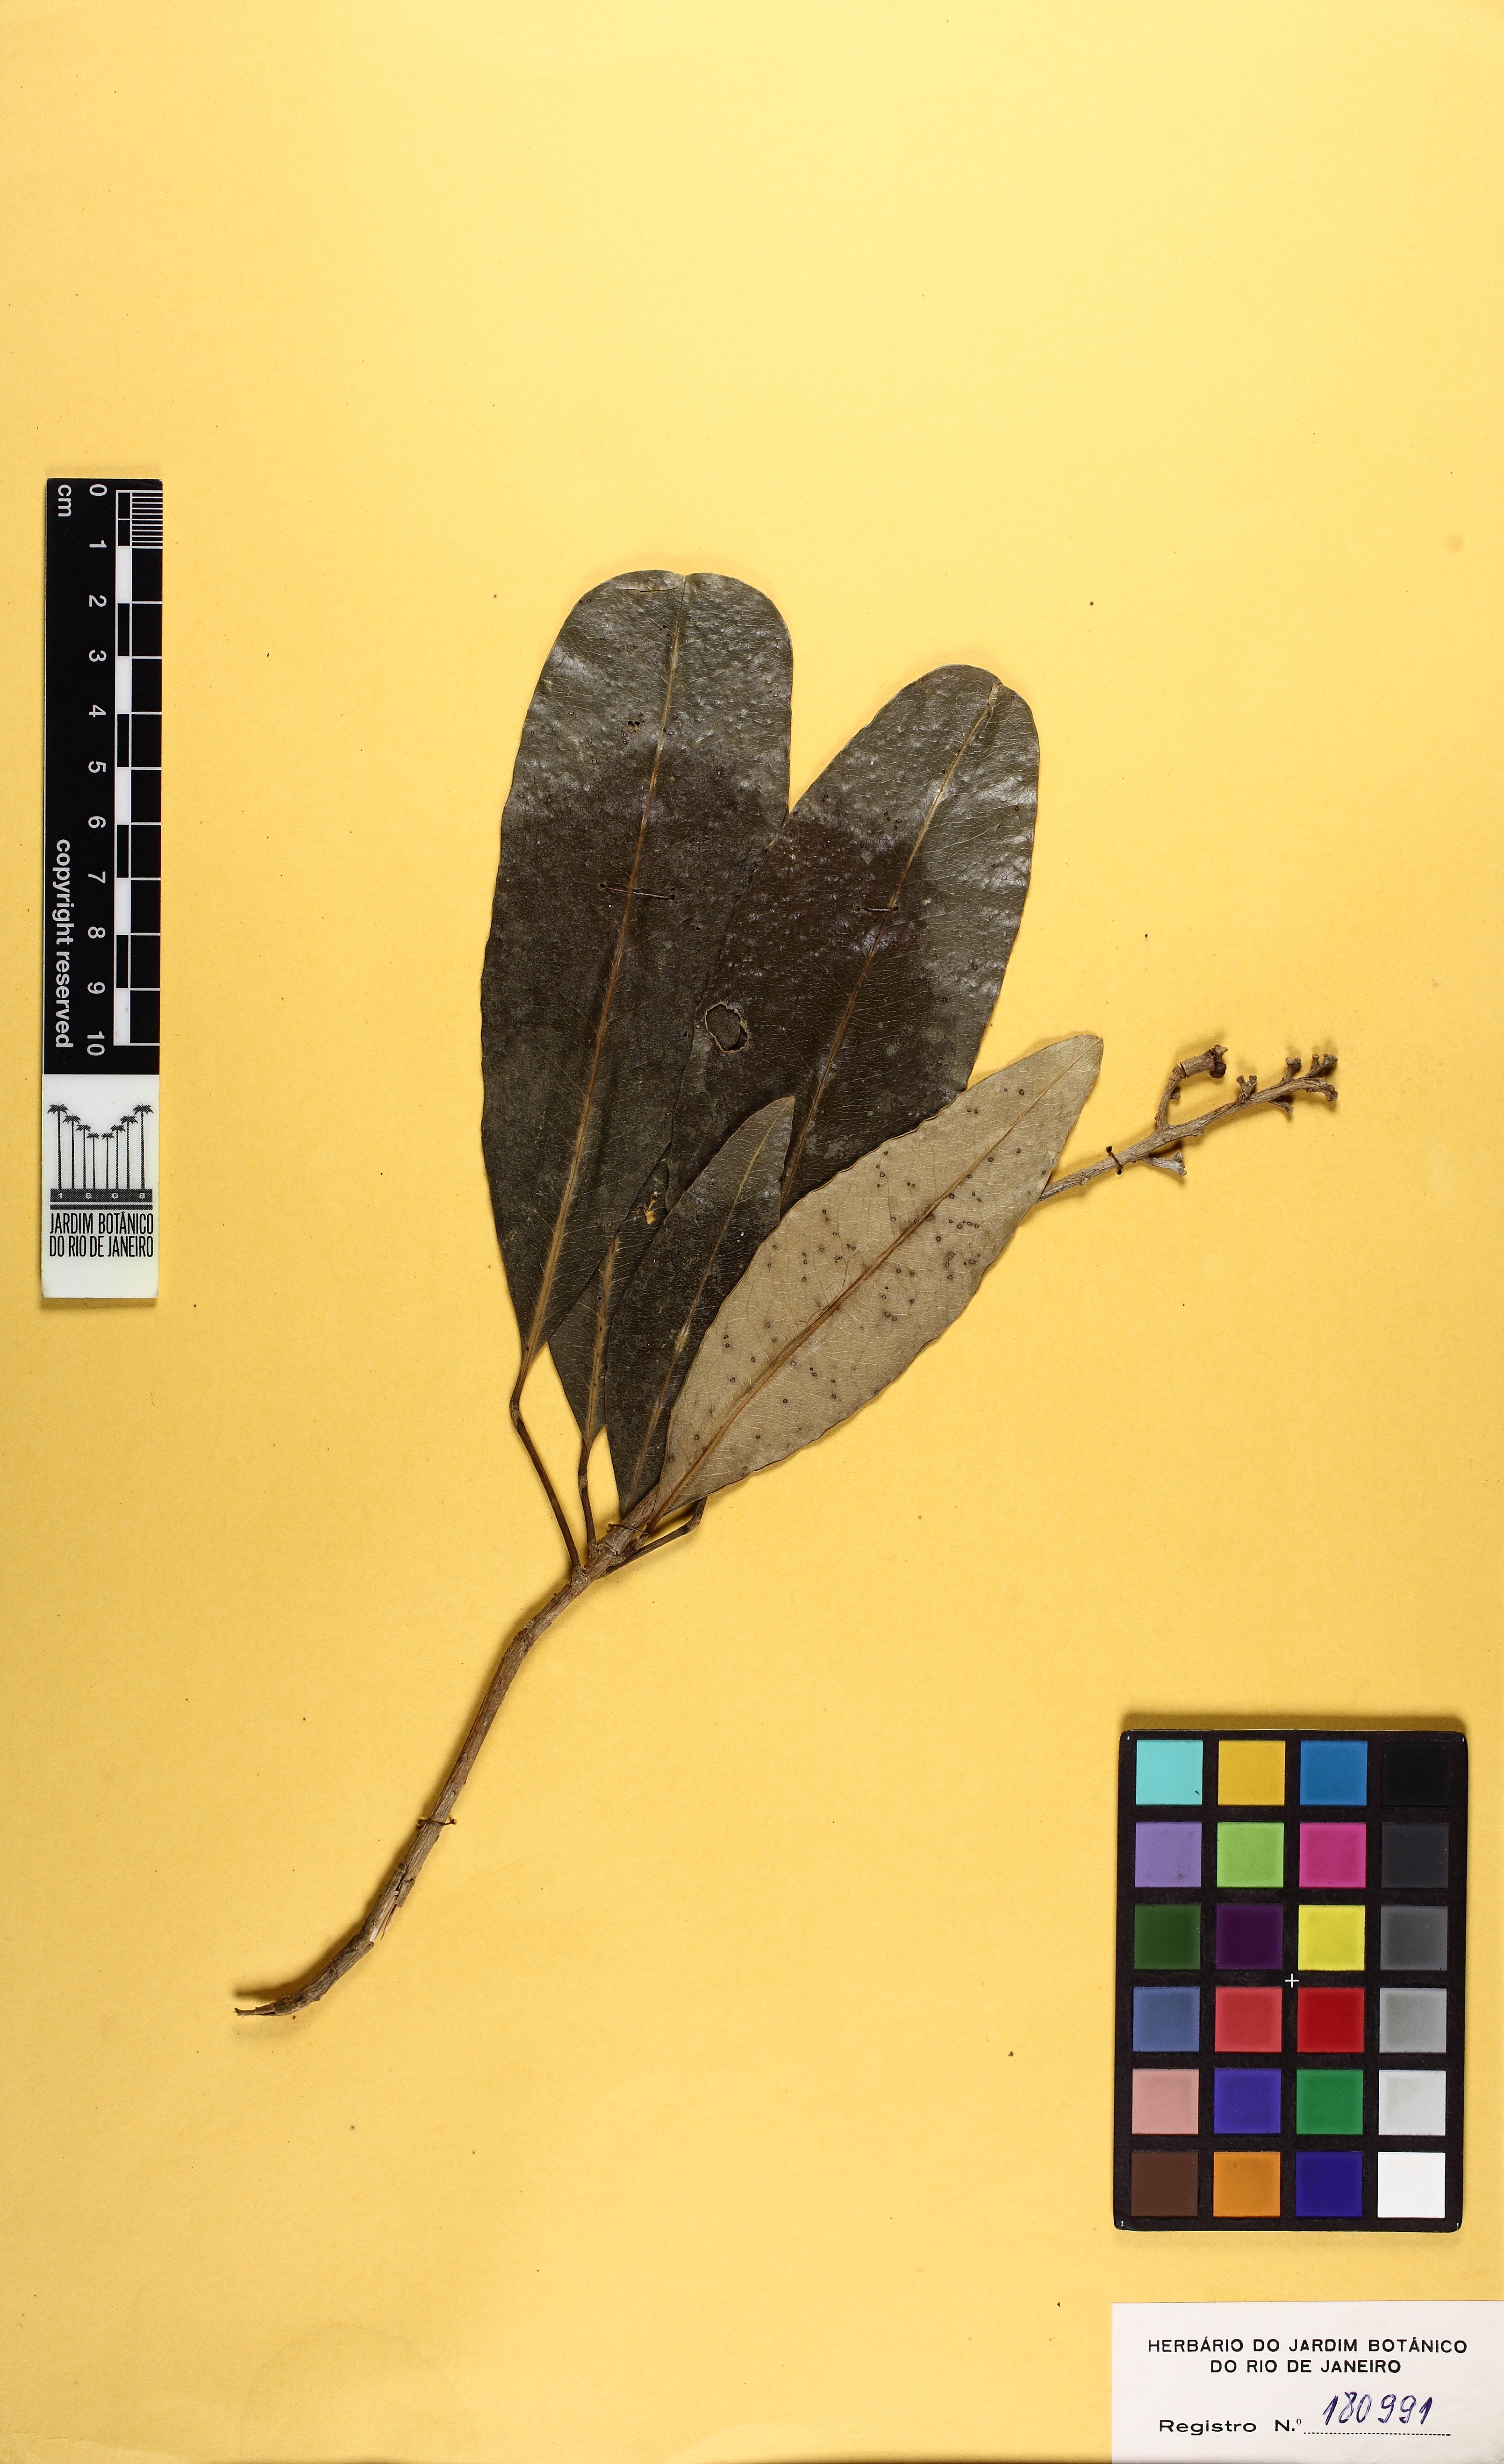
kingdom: Plantae
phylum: Tracheophyta
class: Magnoliopsida
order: Sapindales
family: Rutaceae
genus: Conchocarpus
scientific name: Conchocarpus ruber
